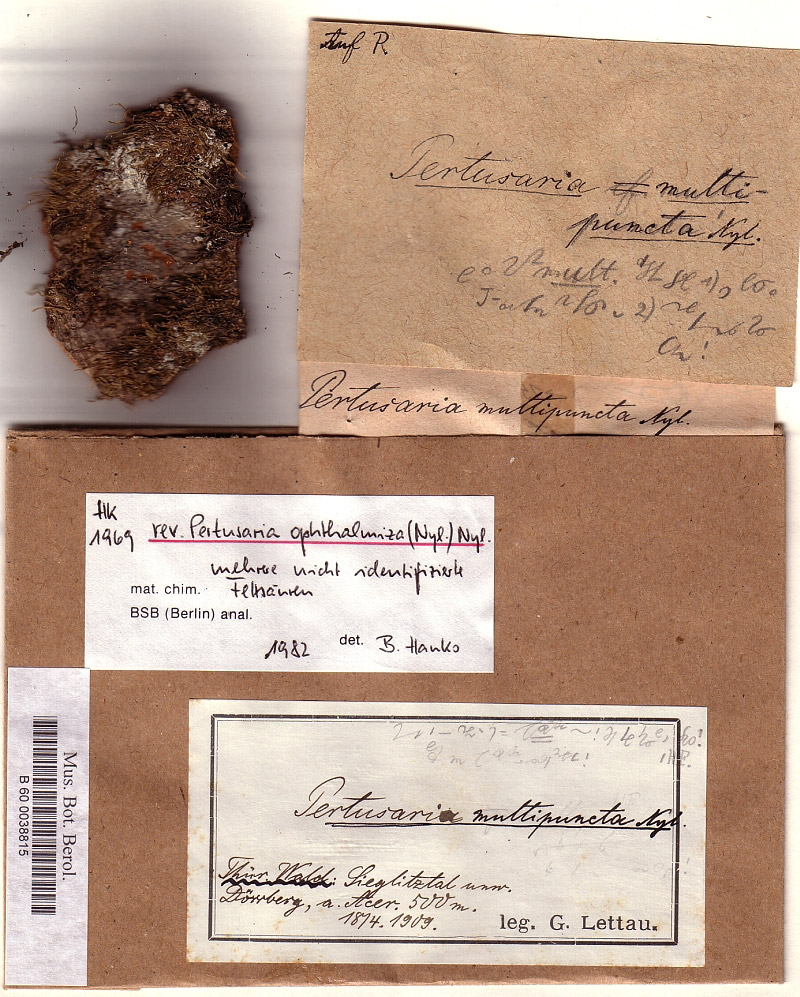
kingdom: Fungi
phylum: Ascomycota
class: Lecanoromycetes
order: Pertusariales
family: Pertusariaceae
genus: Lepra
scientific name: Lepra multipuncta
